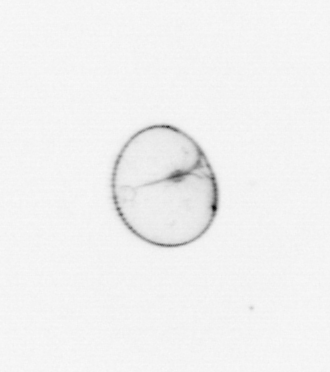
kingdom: Chromista
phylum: Myzozoa
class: Dinophyceae
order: Noctilucales
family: Noctilucaceae
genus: Noctiluca
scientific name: Noctiluca scintillans
